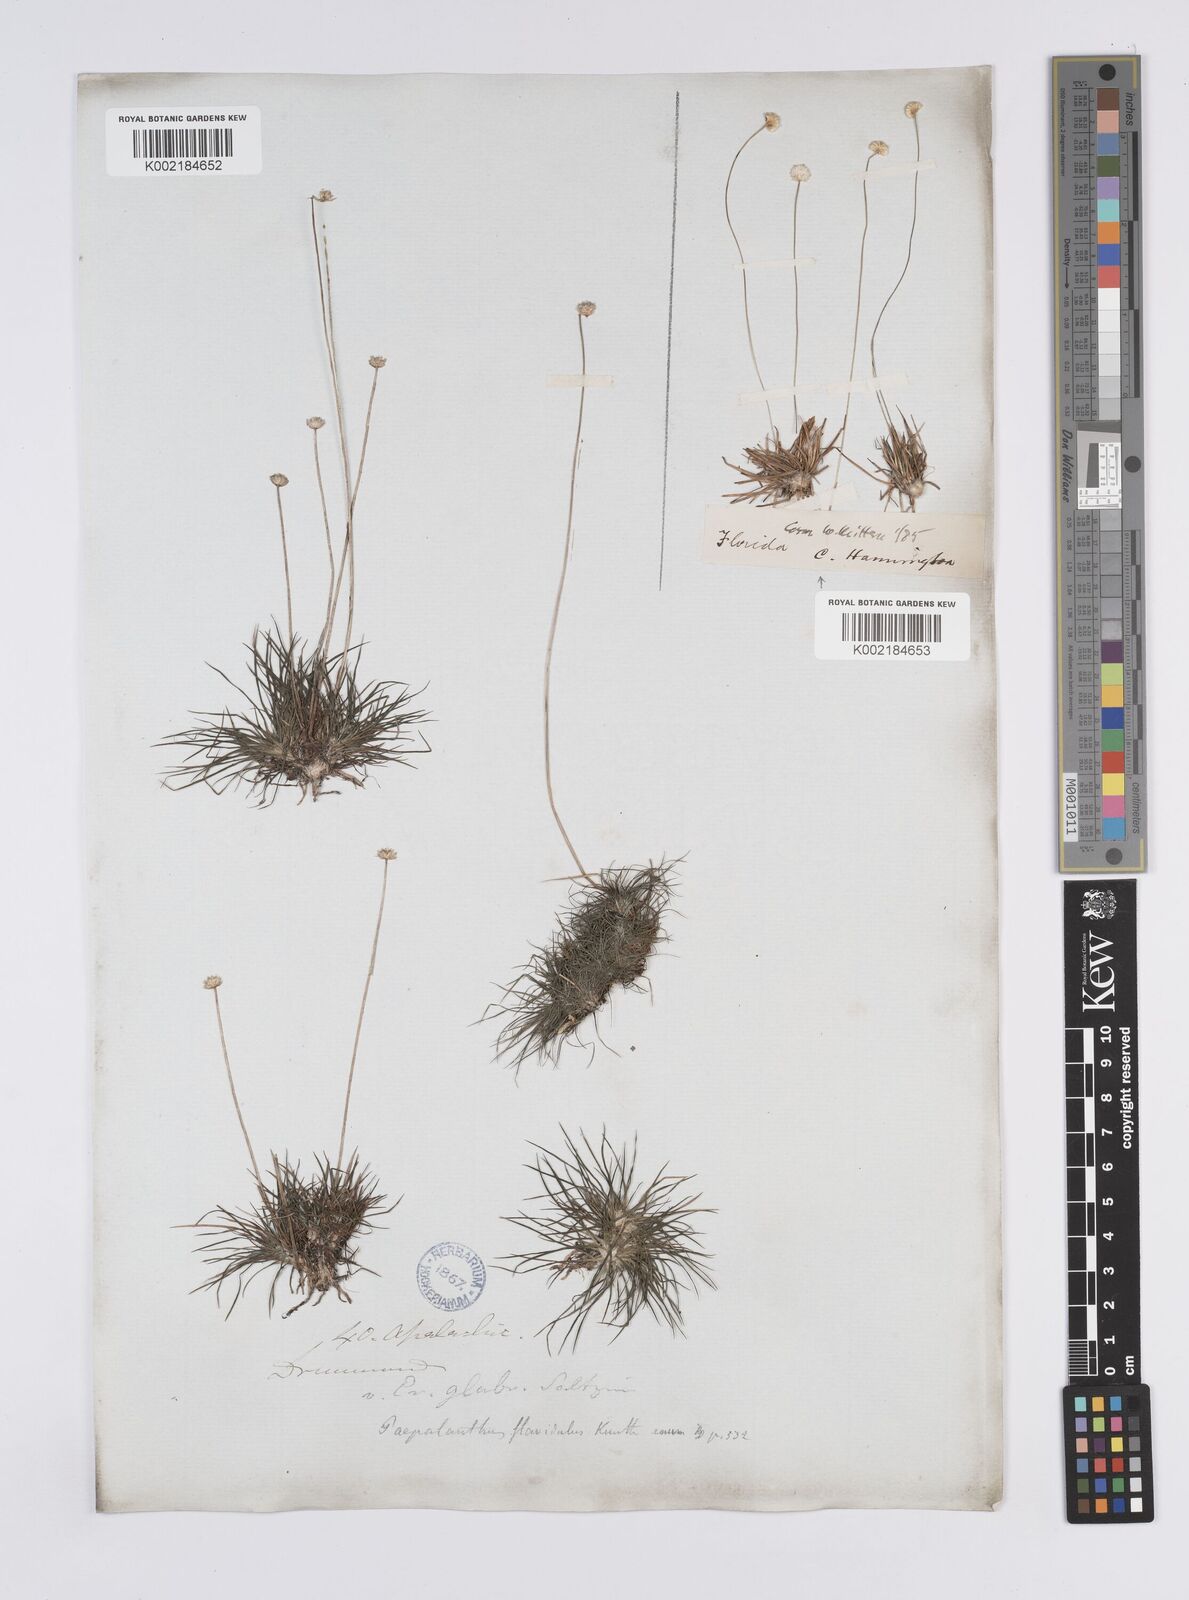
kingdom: Plantae
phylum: Tracheophyta
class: Liliopsida
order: Poales
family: Eriocaulaceae
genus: Syngonanthus
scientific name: Syngonanthus flavidulus
